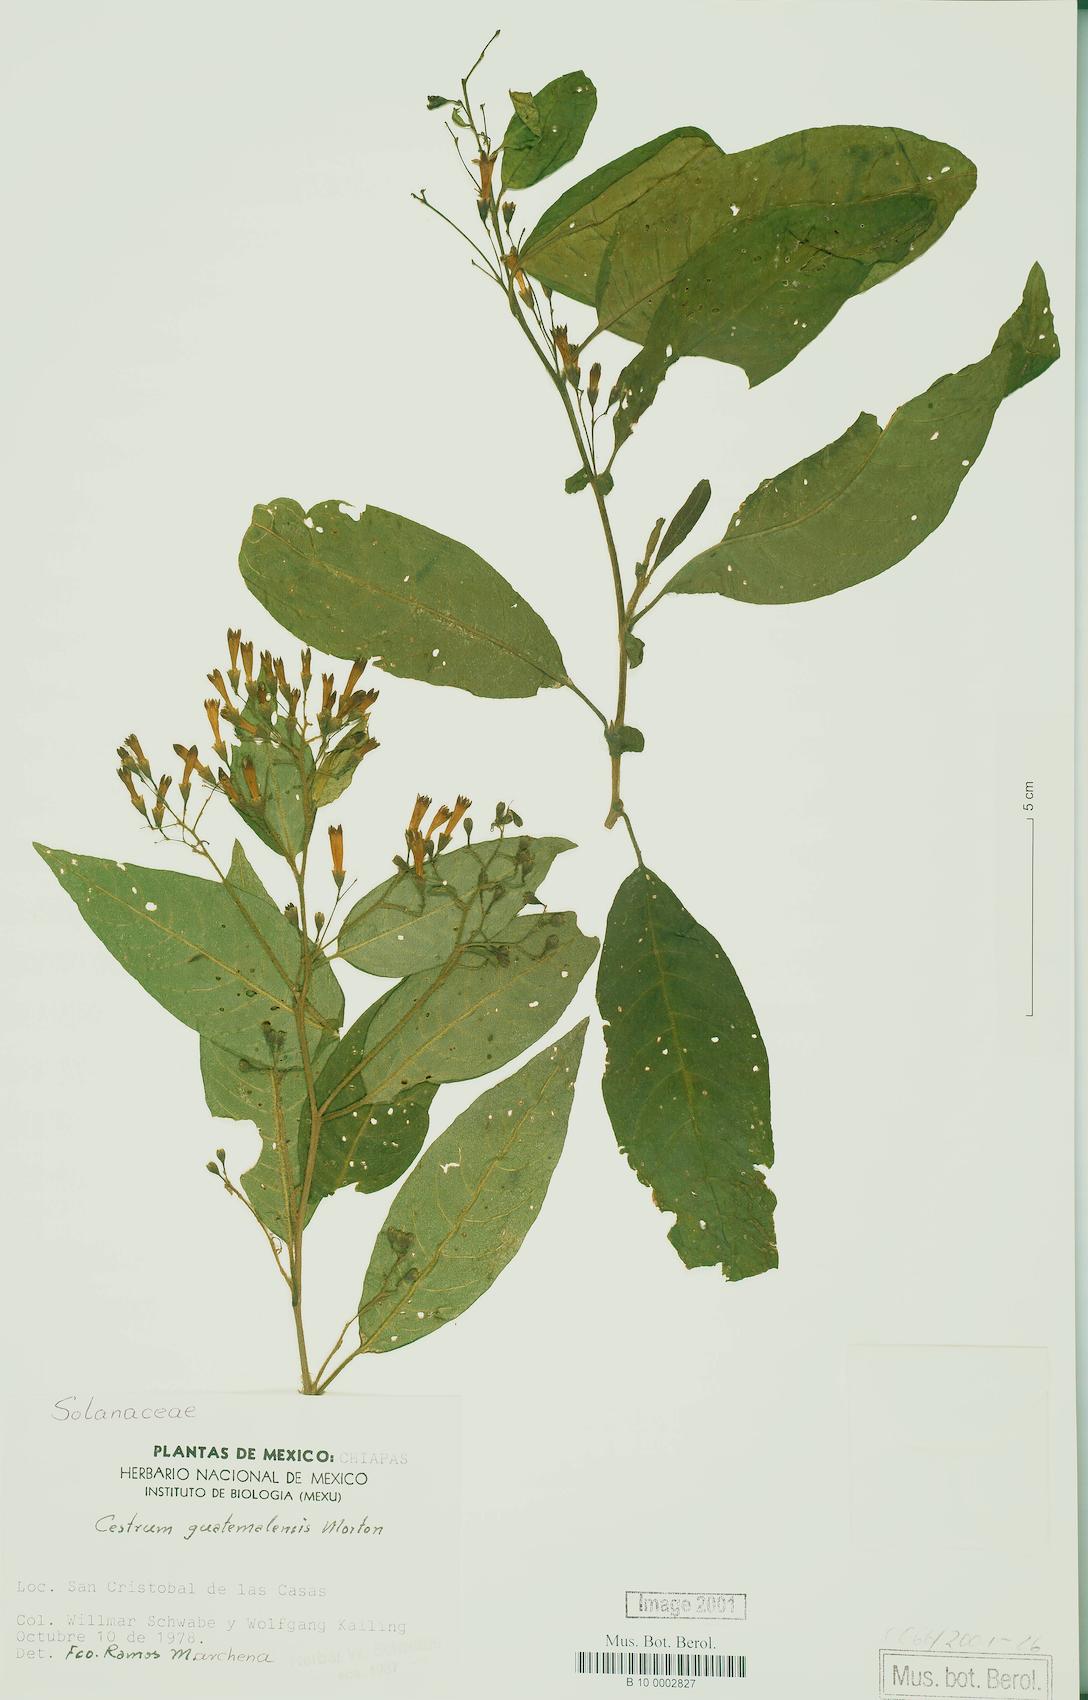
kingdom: Plantae
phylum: Tracheophyta
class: Magnoliopsida
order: Solanales
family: Solanaceae
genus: Cestrum
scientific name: Cestrum guatemalense
